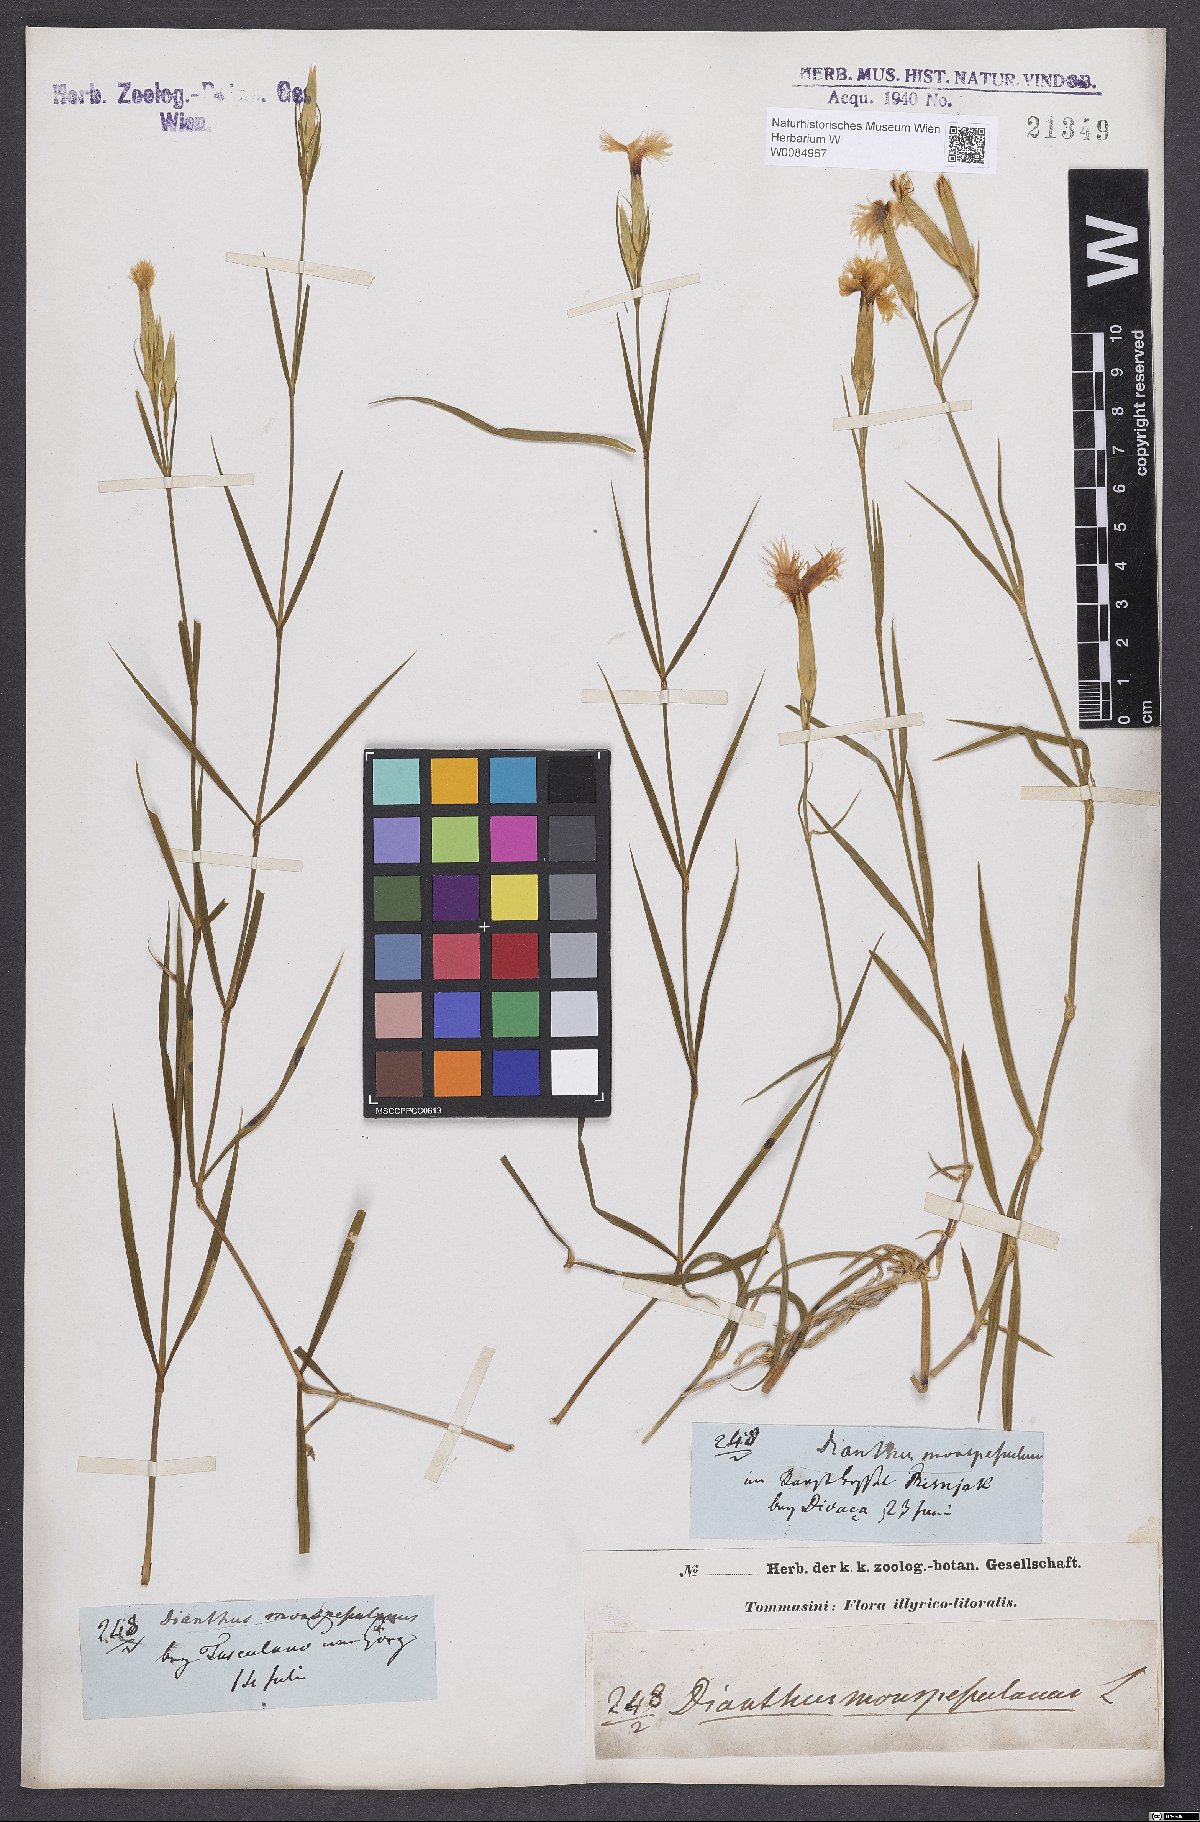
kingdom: Plantae
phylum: Tracheophyta
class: Magnoliopsida
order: Caryophyllales
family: Caryophyllaceae
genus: Dianthus
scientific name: Dianthus hyssopifolius
